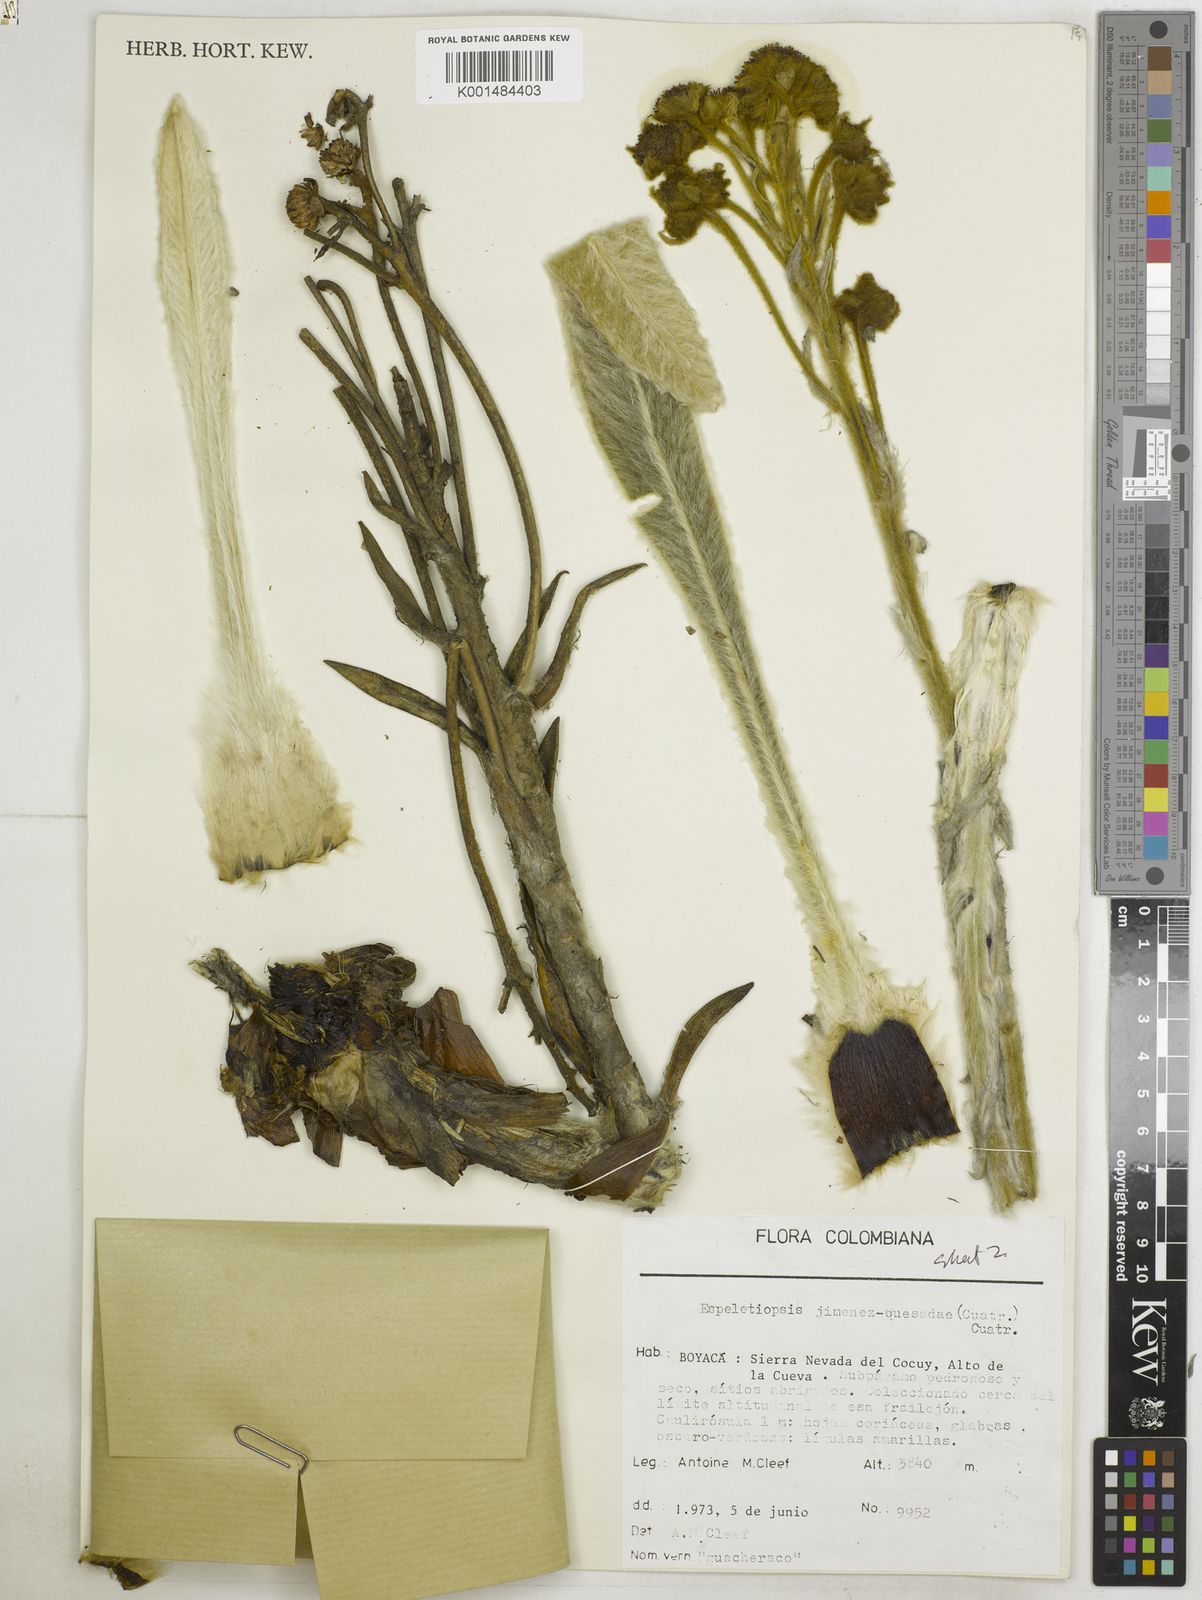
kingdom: Plantae
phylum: Tracheophyta
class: Magnoliopsida
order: Asterales
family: Asteraceae
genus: Espeletia
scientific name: Espeletia jimenez-quesadae
